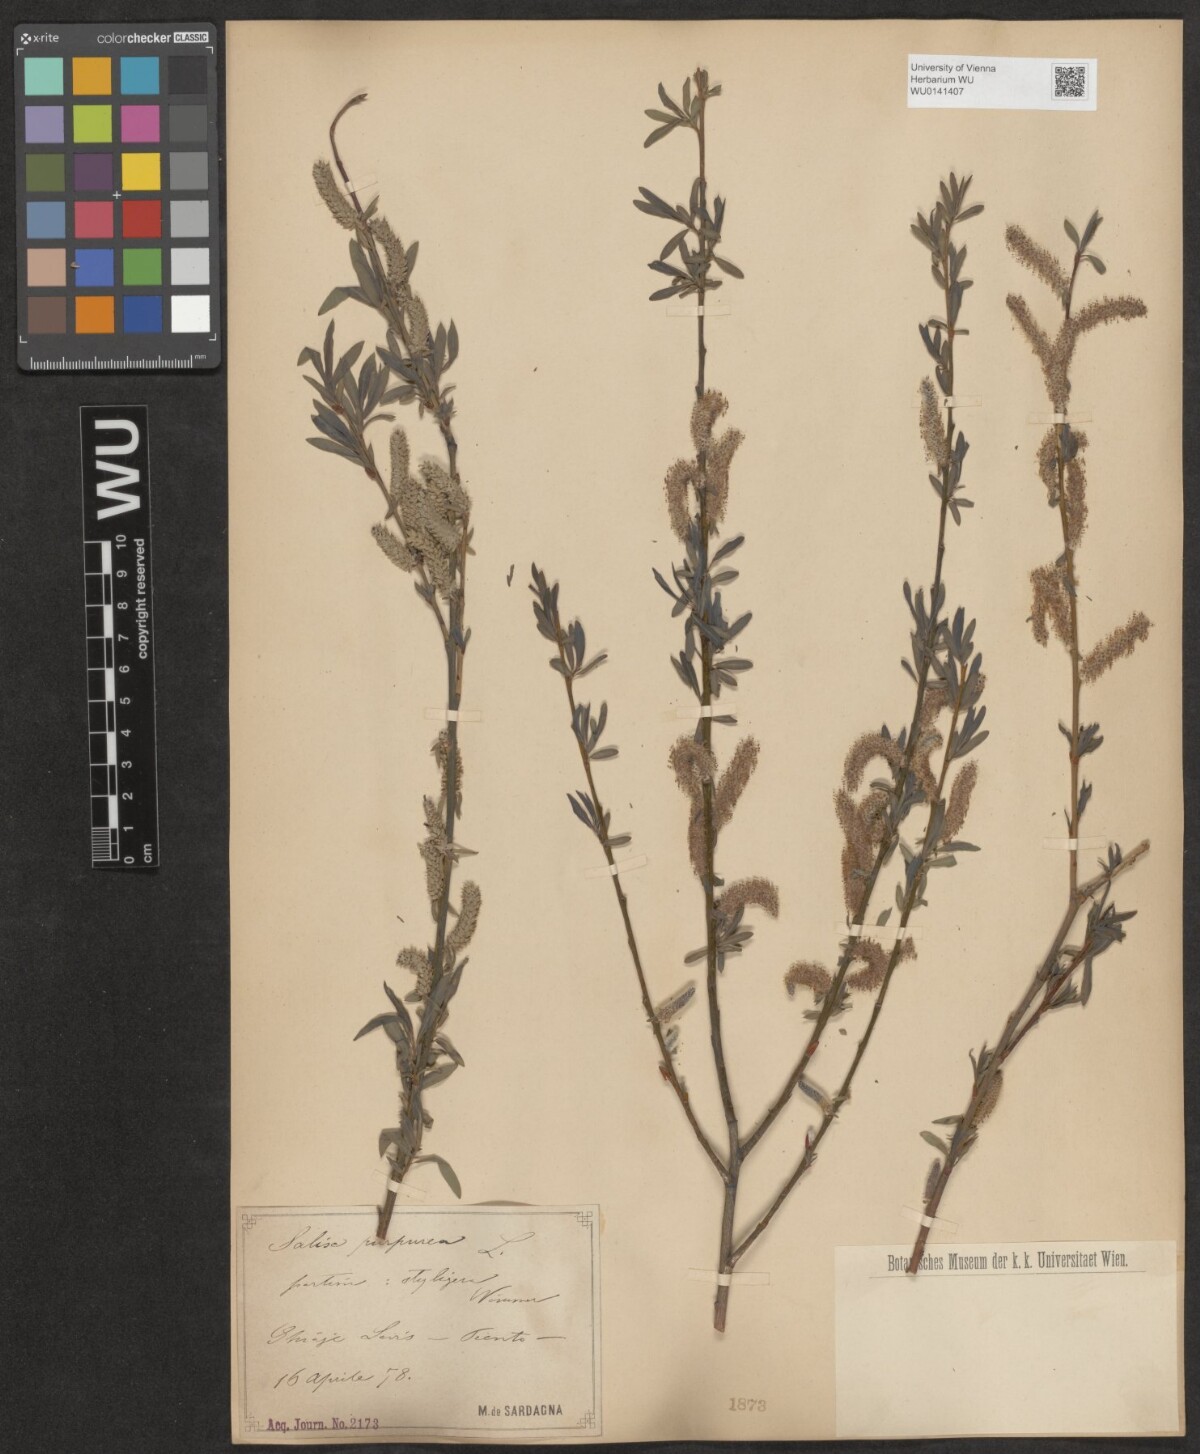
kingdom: Plantae
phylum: Tracheophyta
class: Magnoliopsida
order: Malpighiales
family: Salicaceae
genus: Salix
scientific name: Salix purpurea
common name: Purple willow
